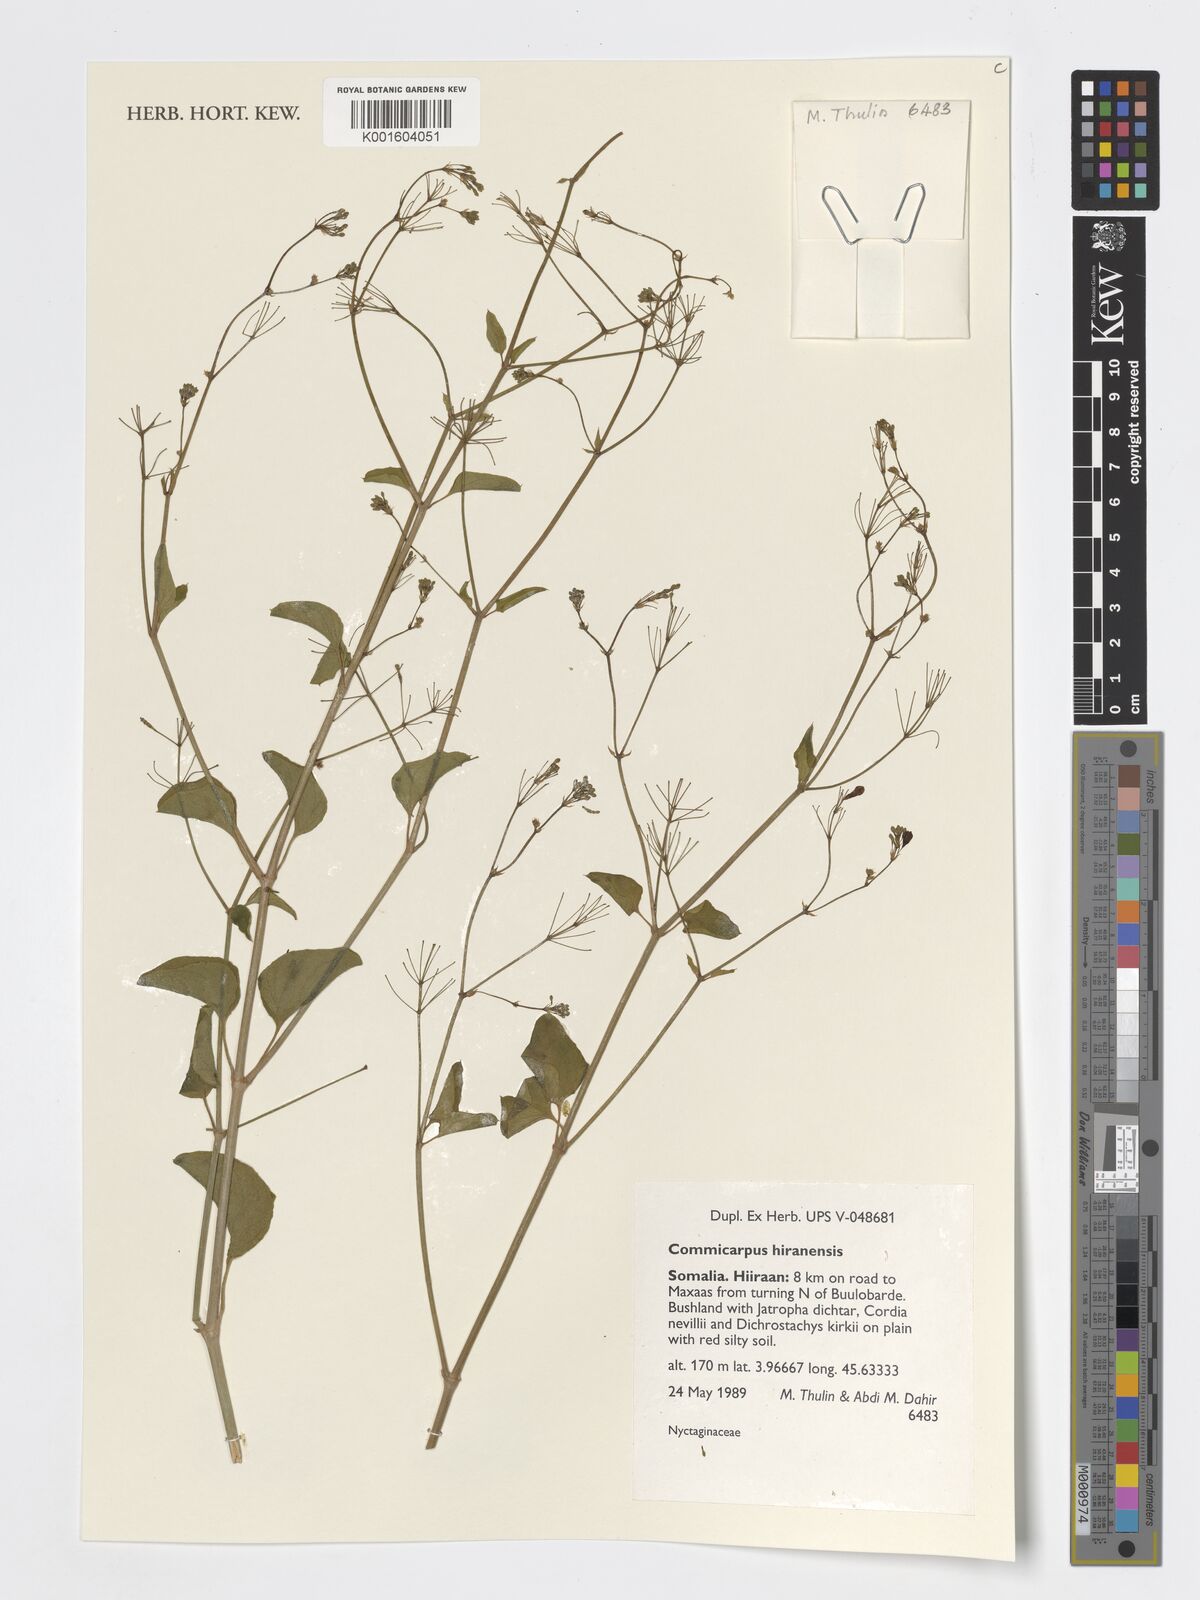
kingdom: Plantae
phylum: Tracheophyta
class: Magnoliopsida
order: Caryophyllales
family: Nyctaginaceae
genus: Commicarpus
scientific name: Commicarpus hiranensis
